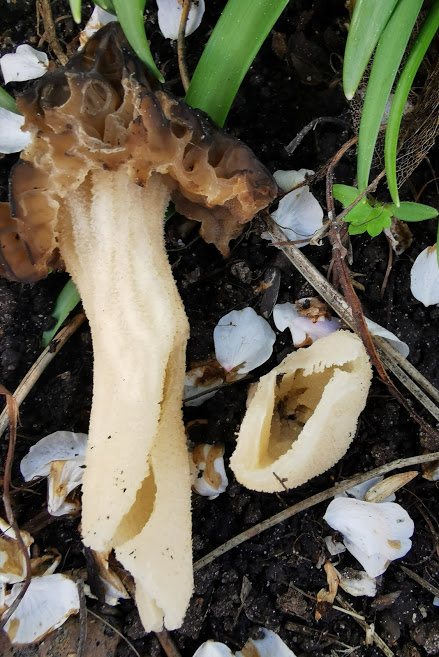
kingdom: Fungi
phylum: Ascomycota
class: Pezizomycetes
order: Pezizales
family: Morchellaceae
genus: Morchella
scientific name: Morchella semilibera
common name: hætte-morkel
